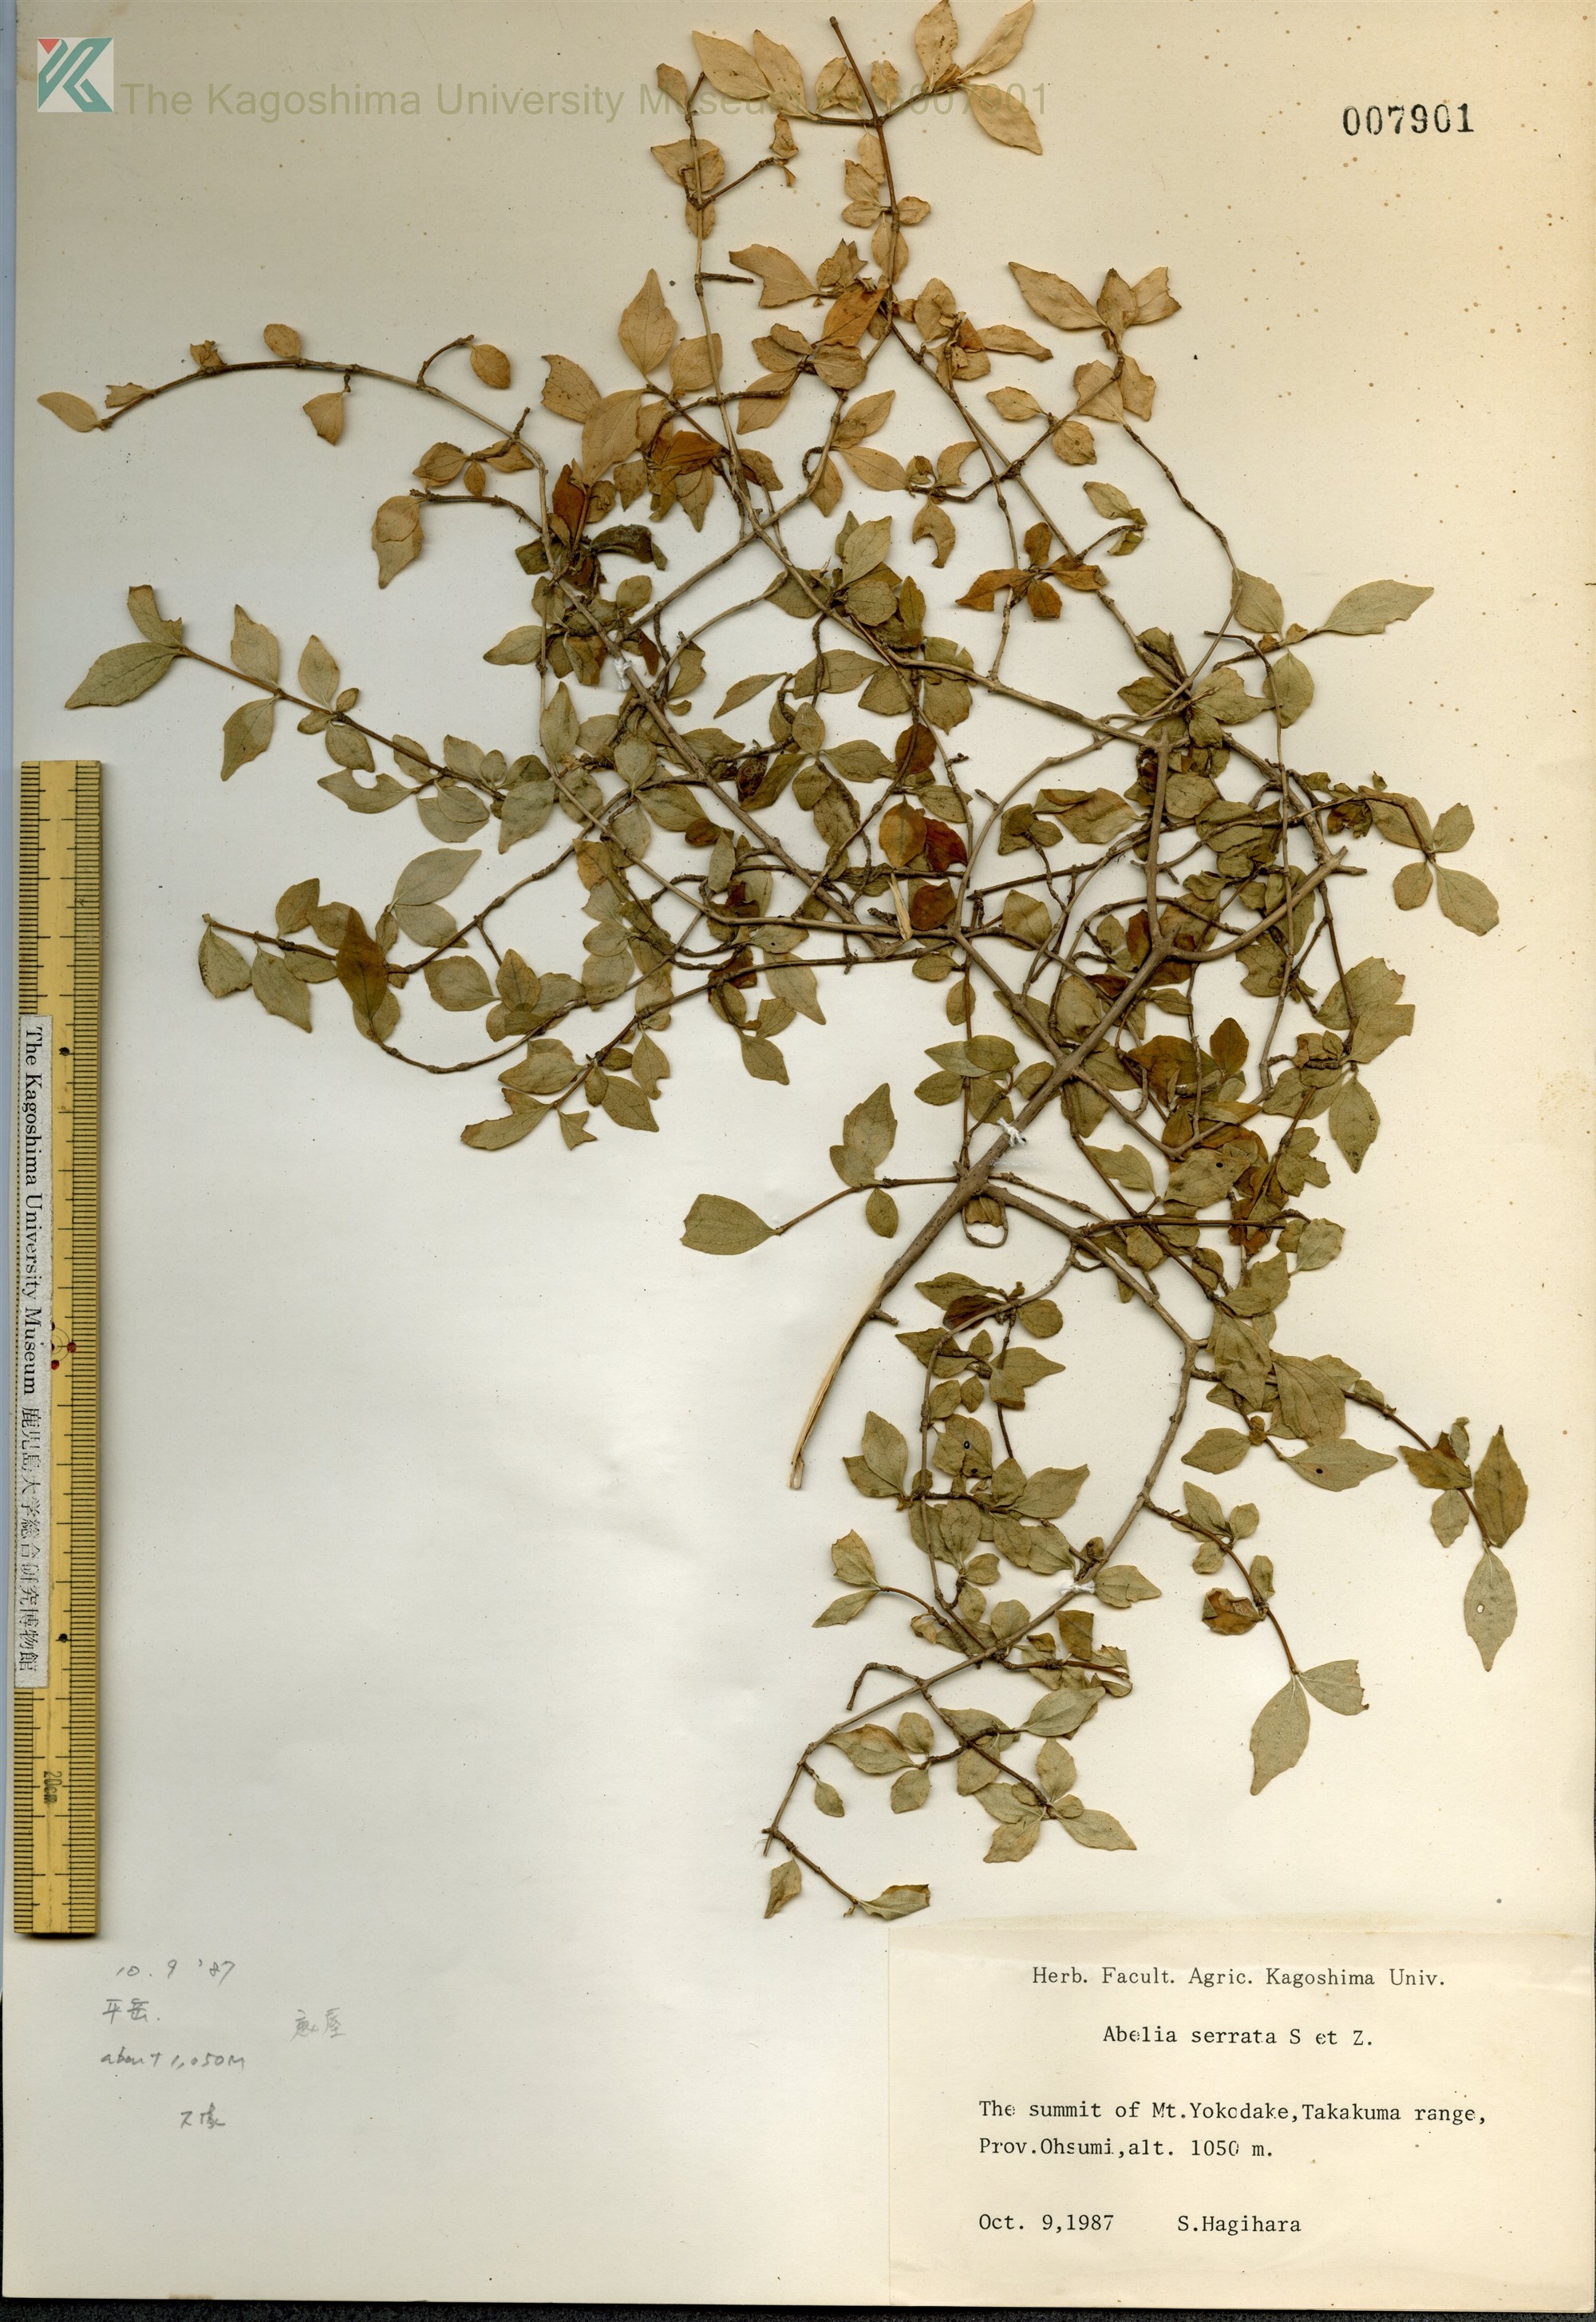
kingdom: Plantae
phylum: Tracheophyta
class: Magnoliopsida
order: Dipsacales
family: Caprifoliaceae
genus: Diabelia
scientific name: Diabelia serrata
